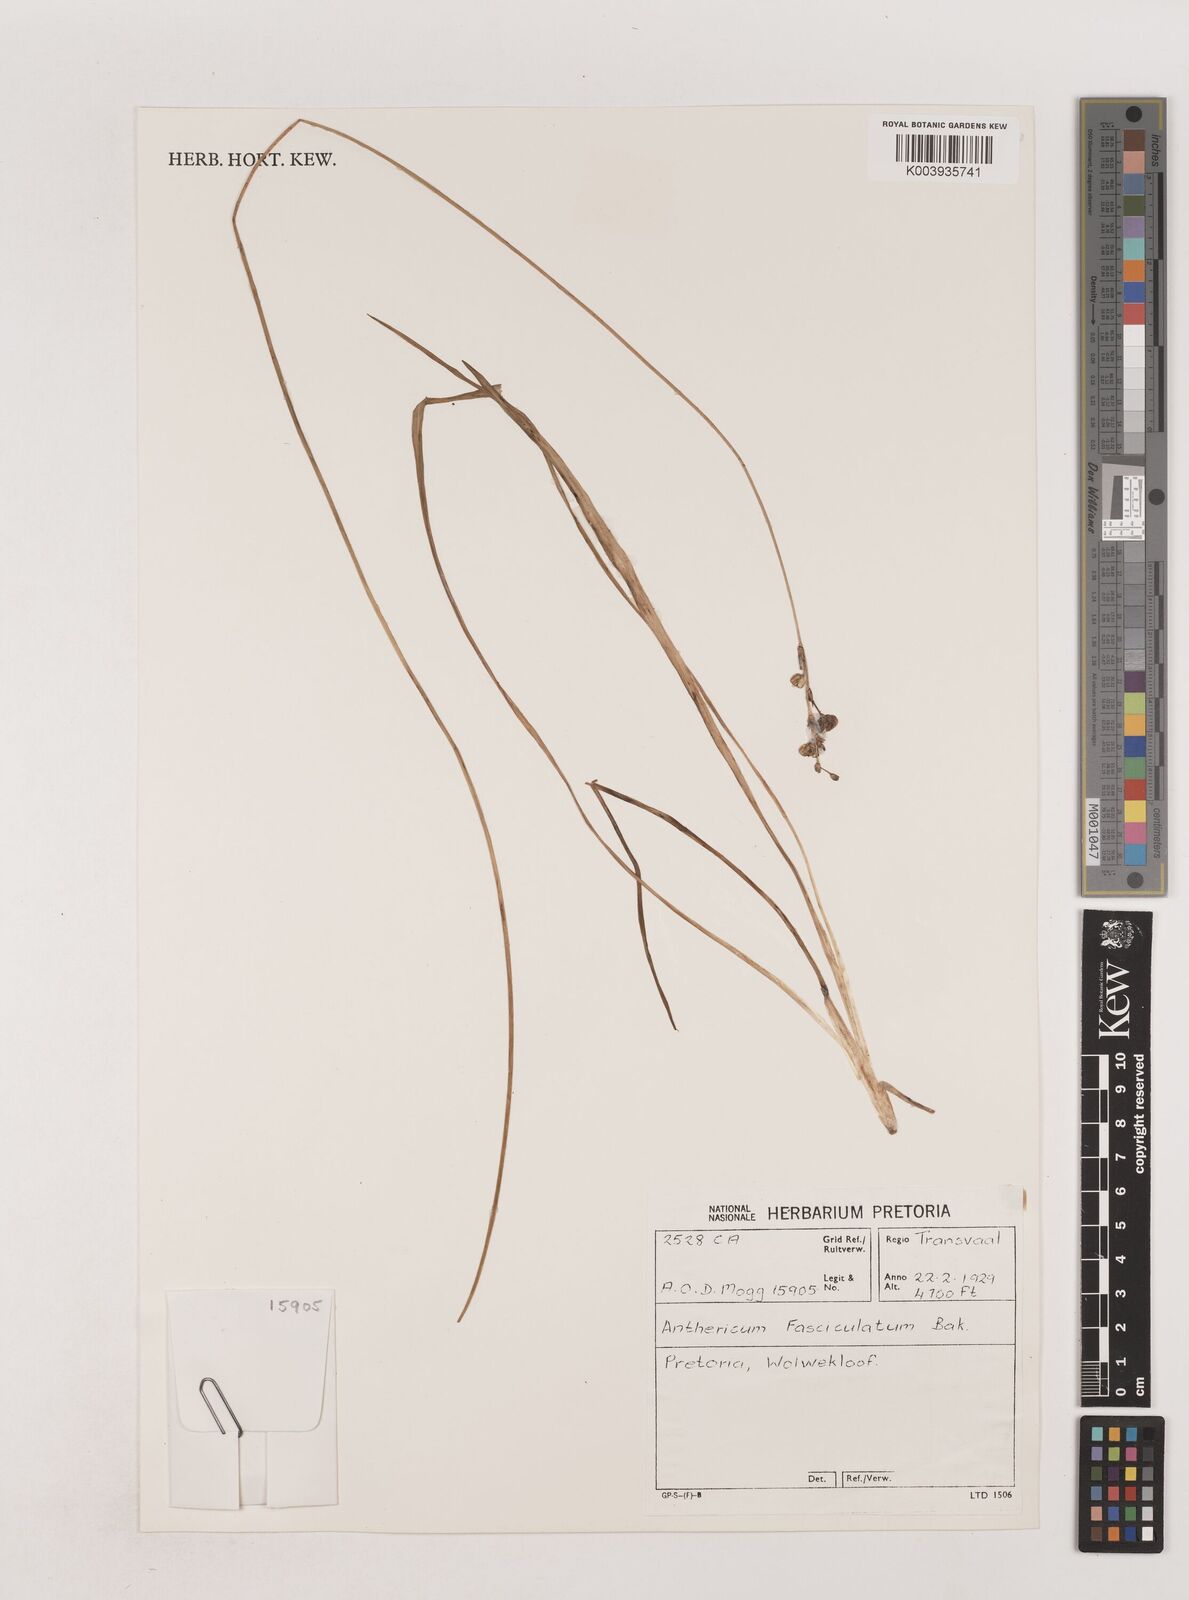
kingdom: Plantae
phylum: Tracheophyta
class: Liliopsida
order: Asparagales
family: Asparagaceae
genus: Chlorophytum
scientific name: Chlorophytum fasciculatum
